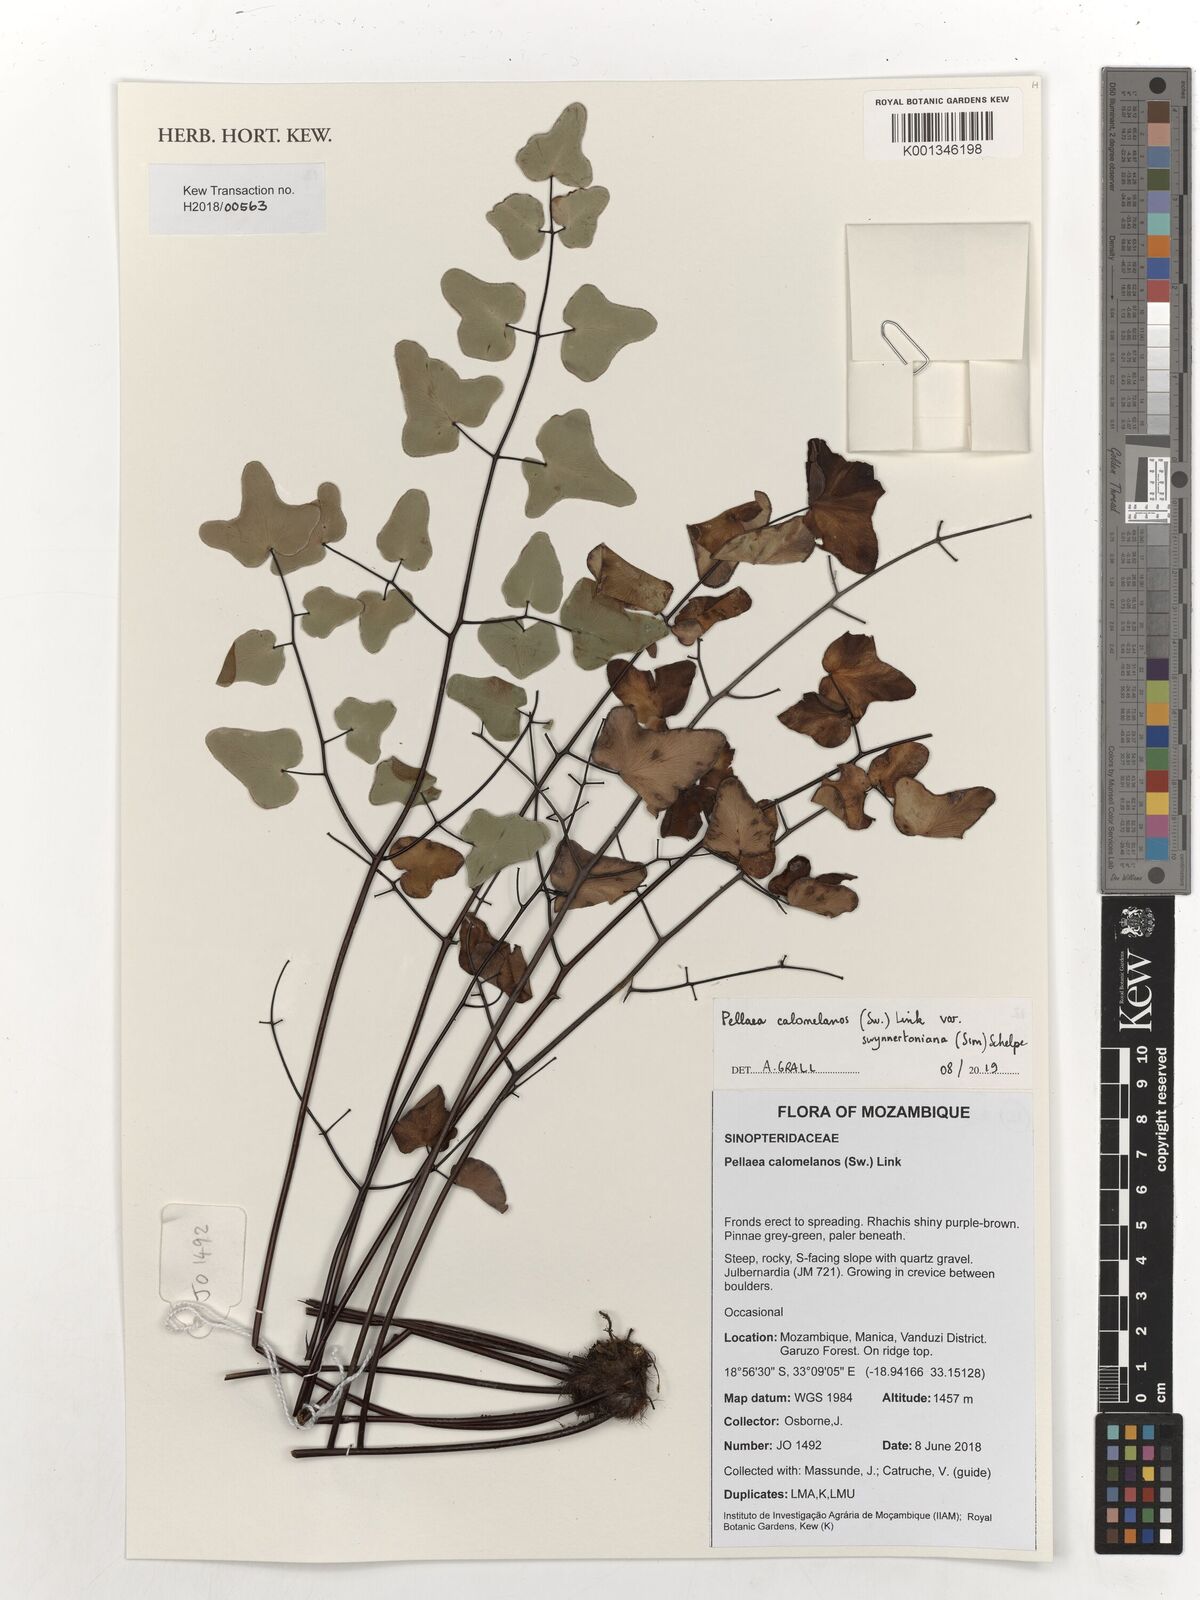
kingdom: Plantae
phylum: Tracheophyta
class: Polypodiopsida
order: Polypodiales
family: Pteridaceae
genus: Pellaea
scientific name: Pellaea calomelanos
